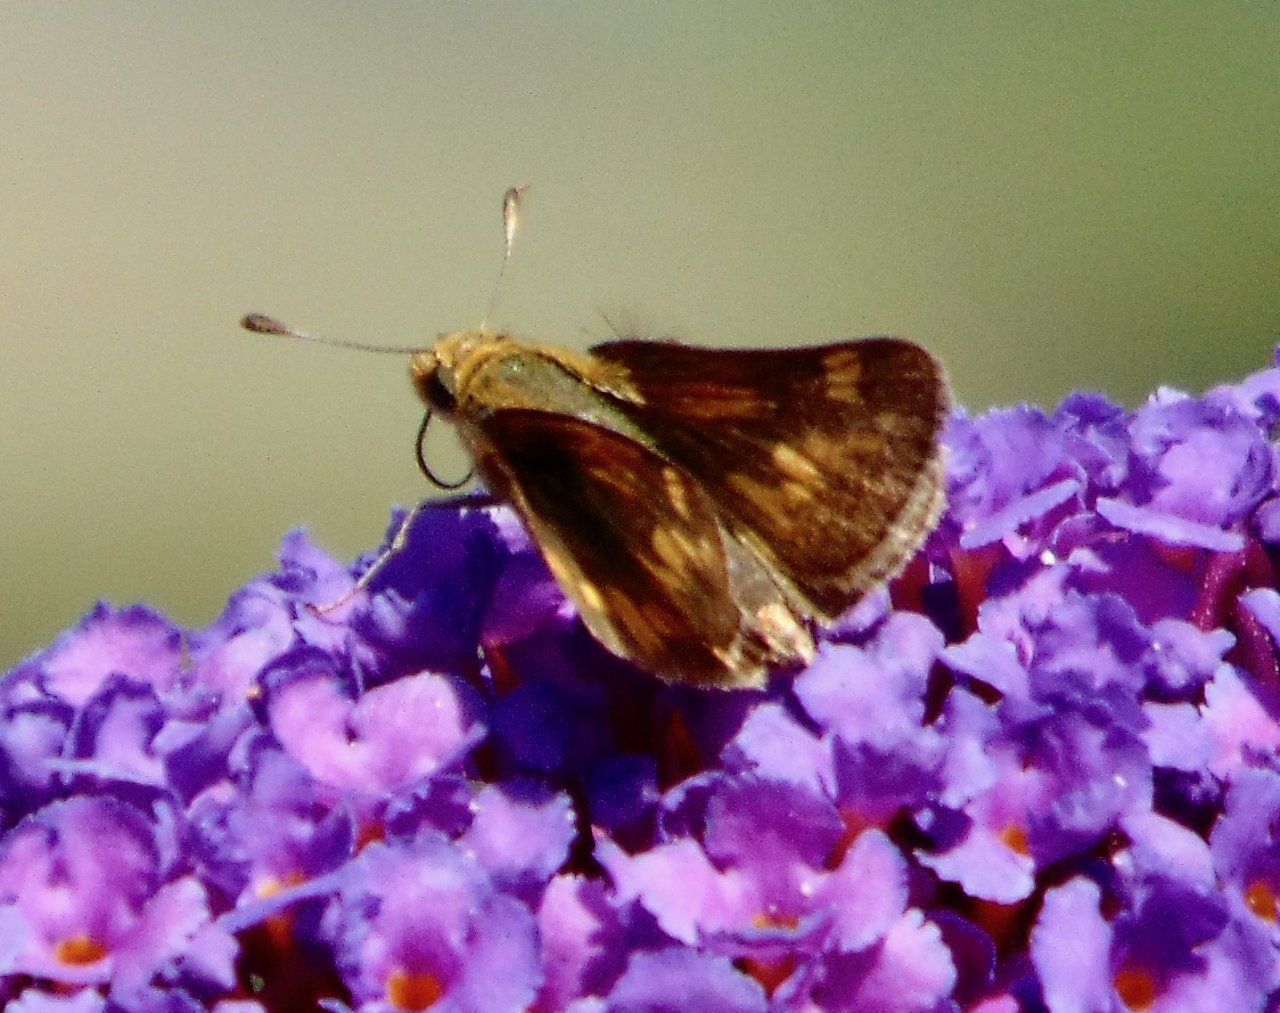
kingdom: Animalia
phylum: Arthropoda
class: Insecta
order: Lepidoptera
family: Hesperiidae
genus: Polites
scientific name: Polites coras
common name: Peck's Skipper
